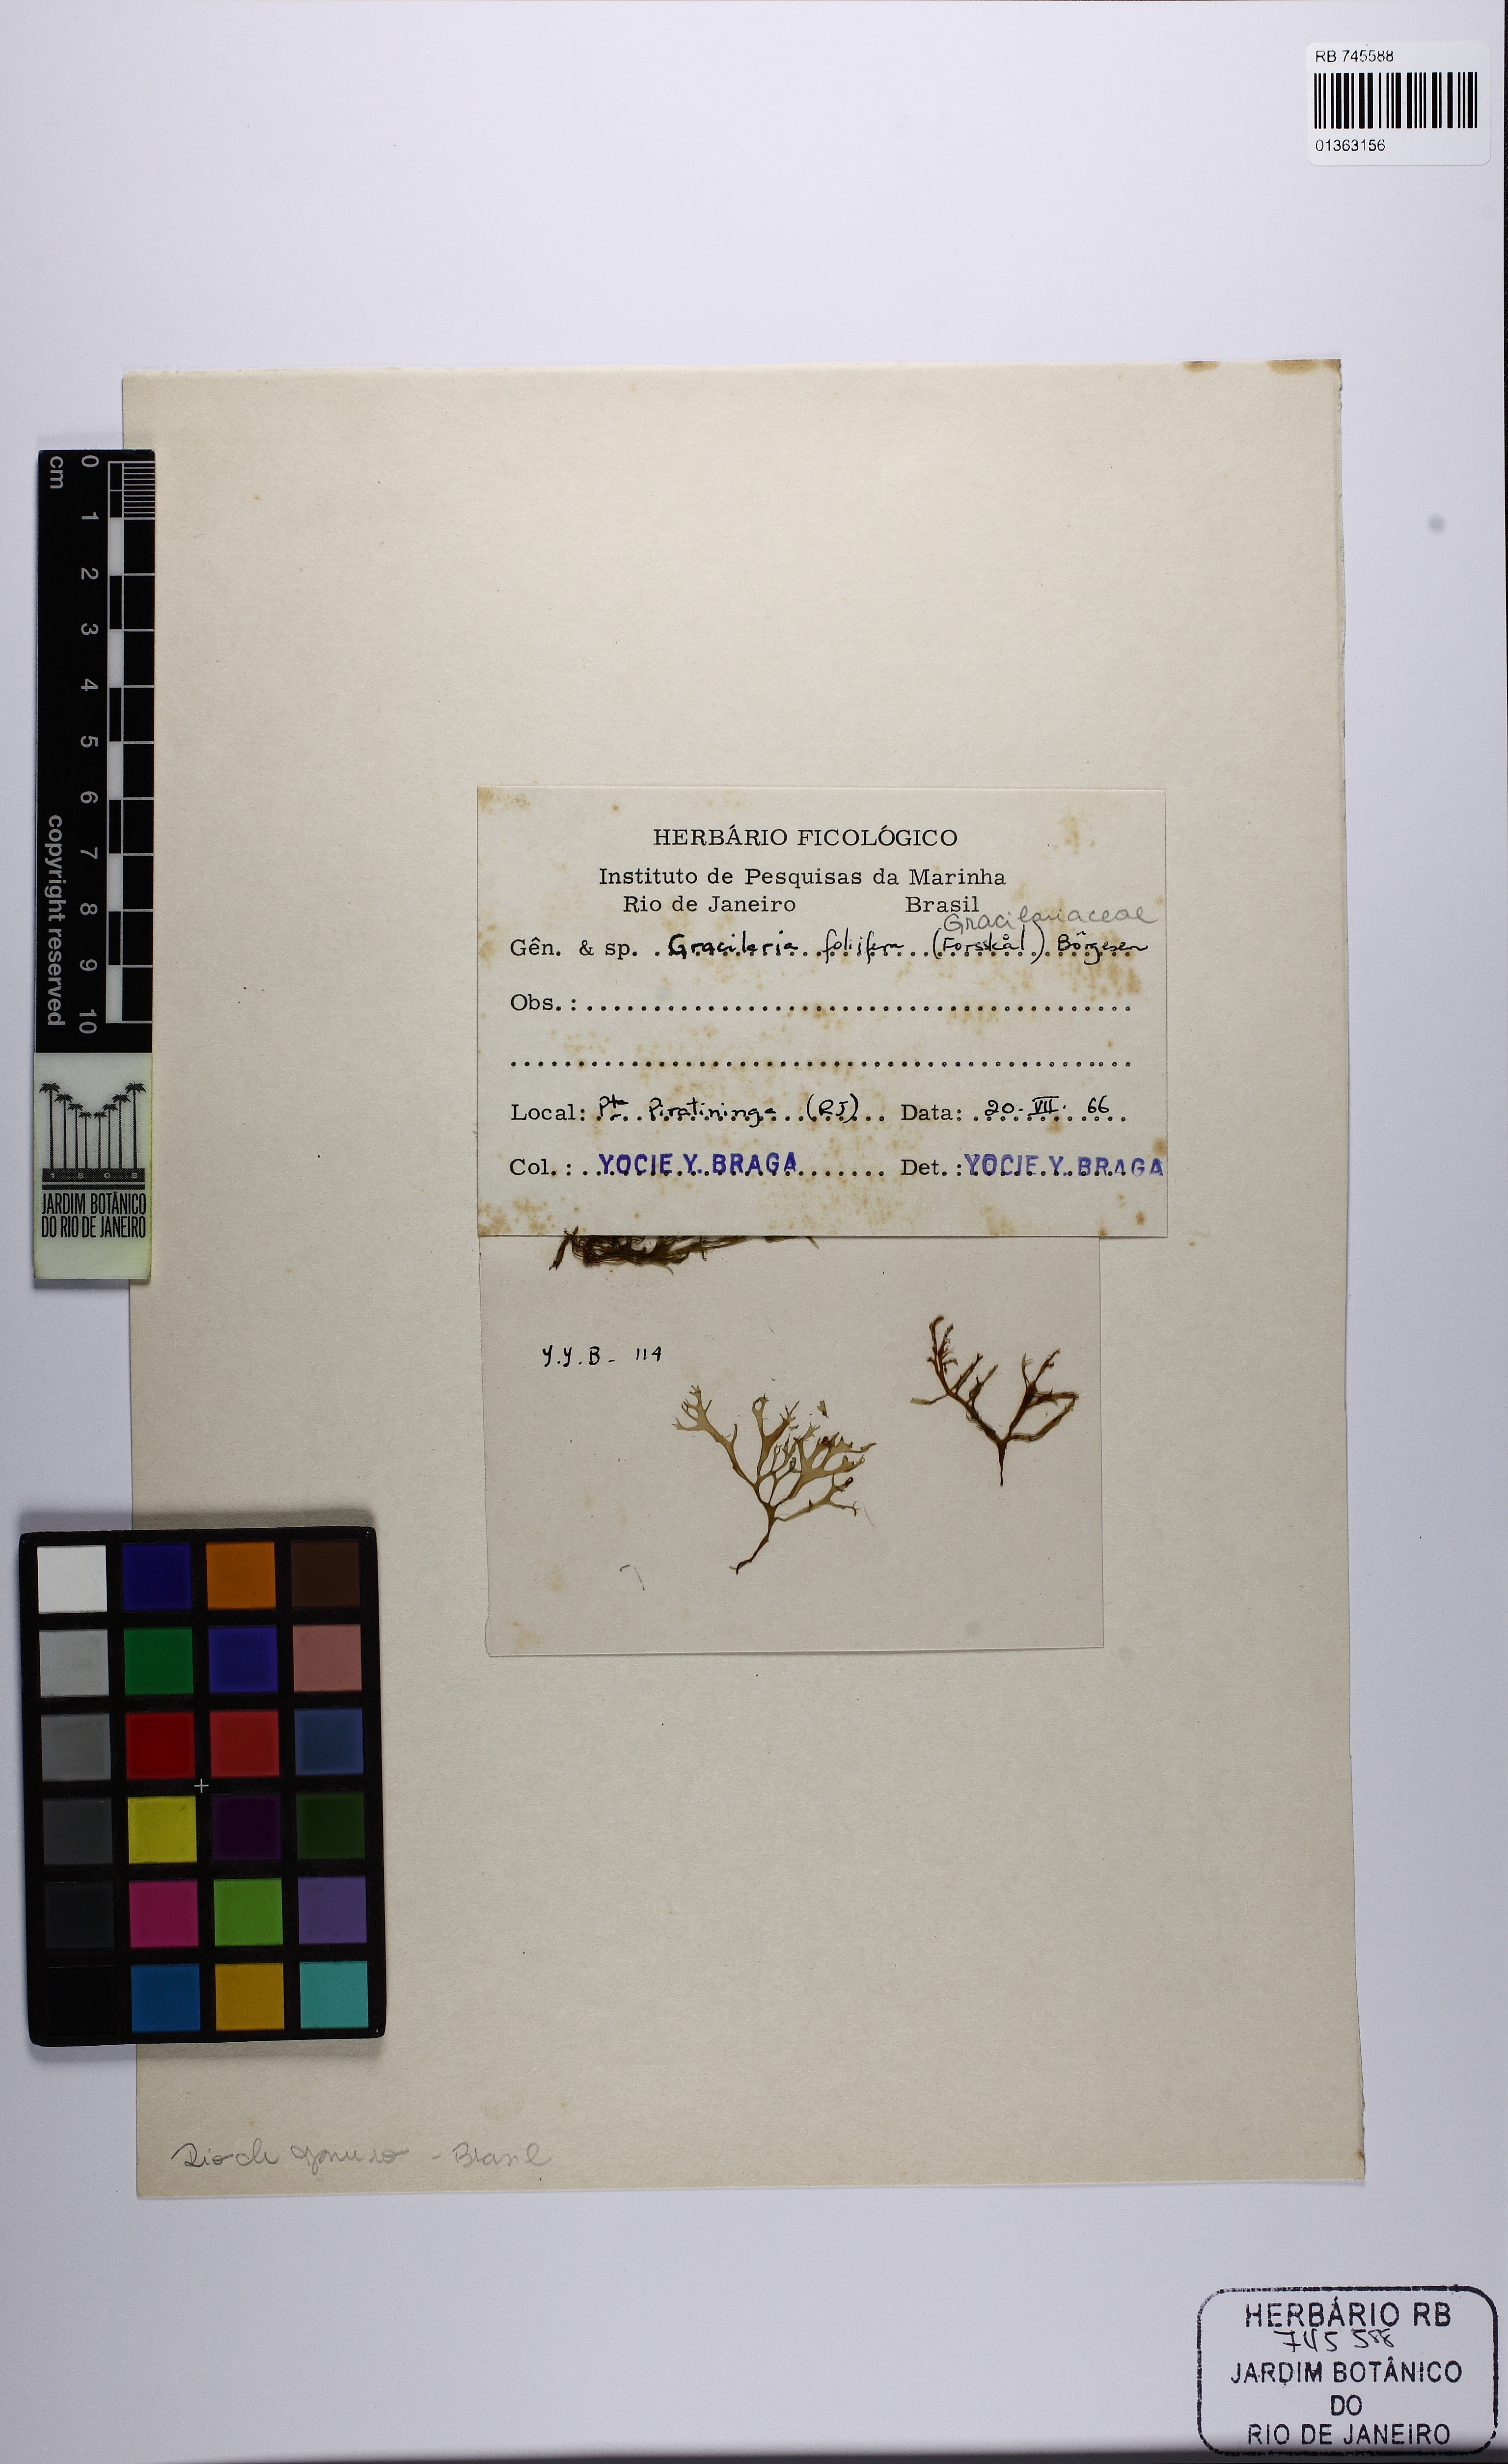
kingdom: Plantae
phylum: Rhodophyta
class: Florideophyceae
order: Gracilariales
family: Gracilariaceae
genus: Gracilaria
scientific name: Gracilaria foliifera
